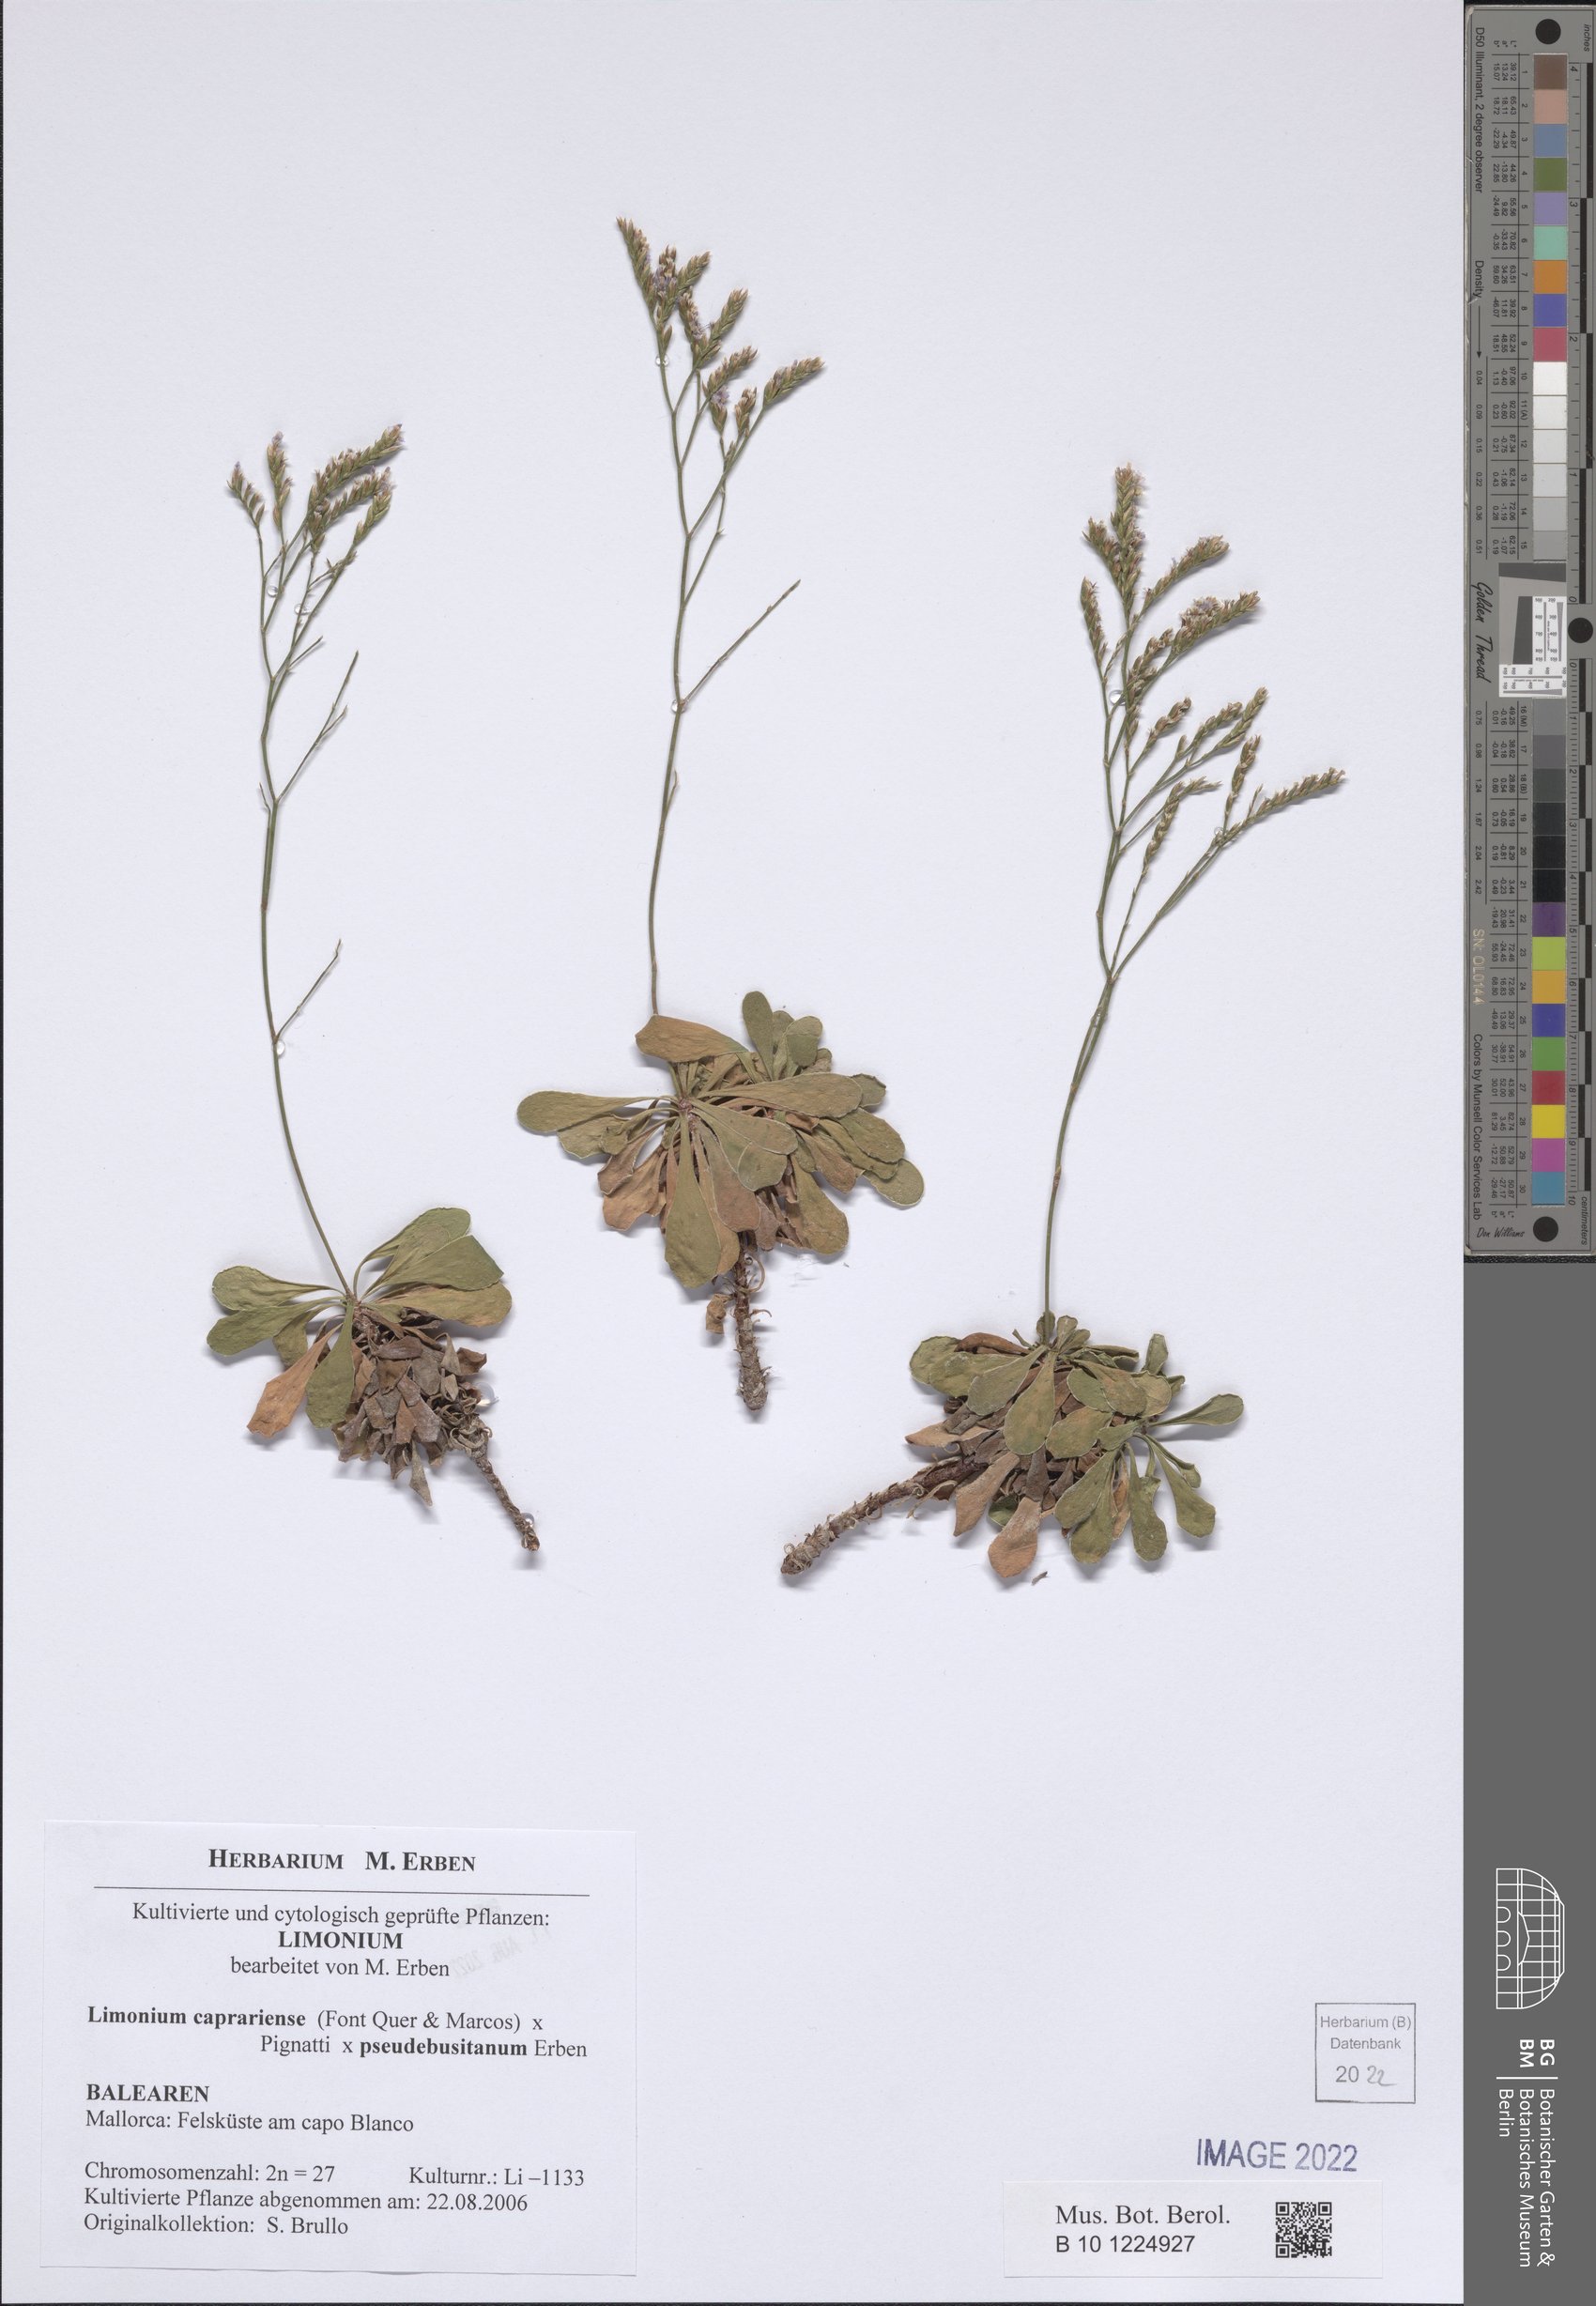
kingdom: Plantae
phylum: Tracheophyta
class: Magnoliopsida
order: Caryophyllales
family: Plumbaginaceae
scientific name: Plumbaginaceae
